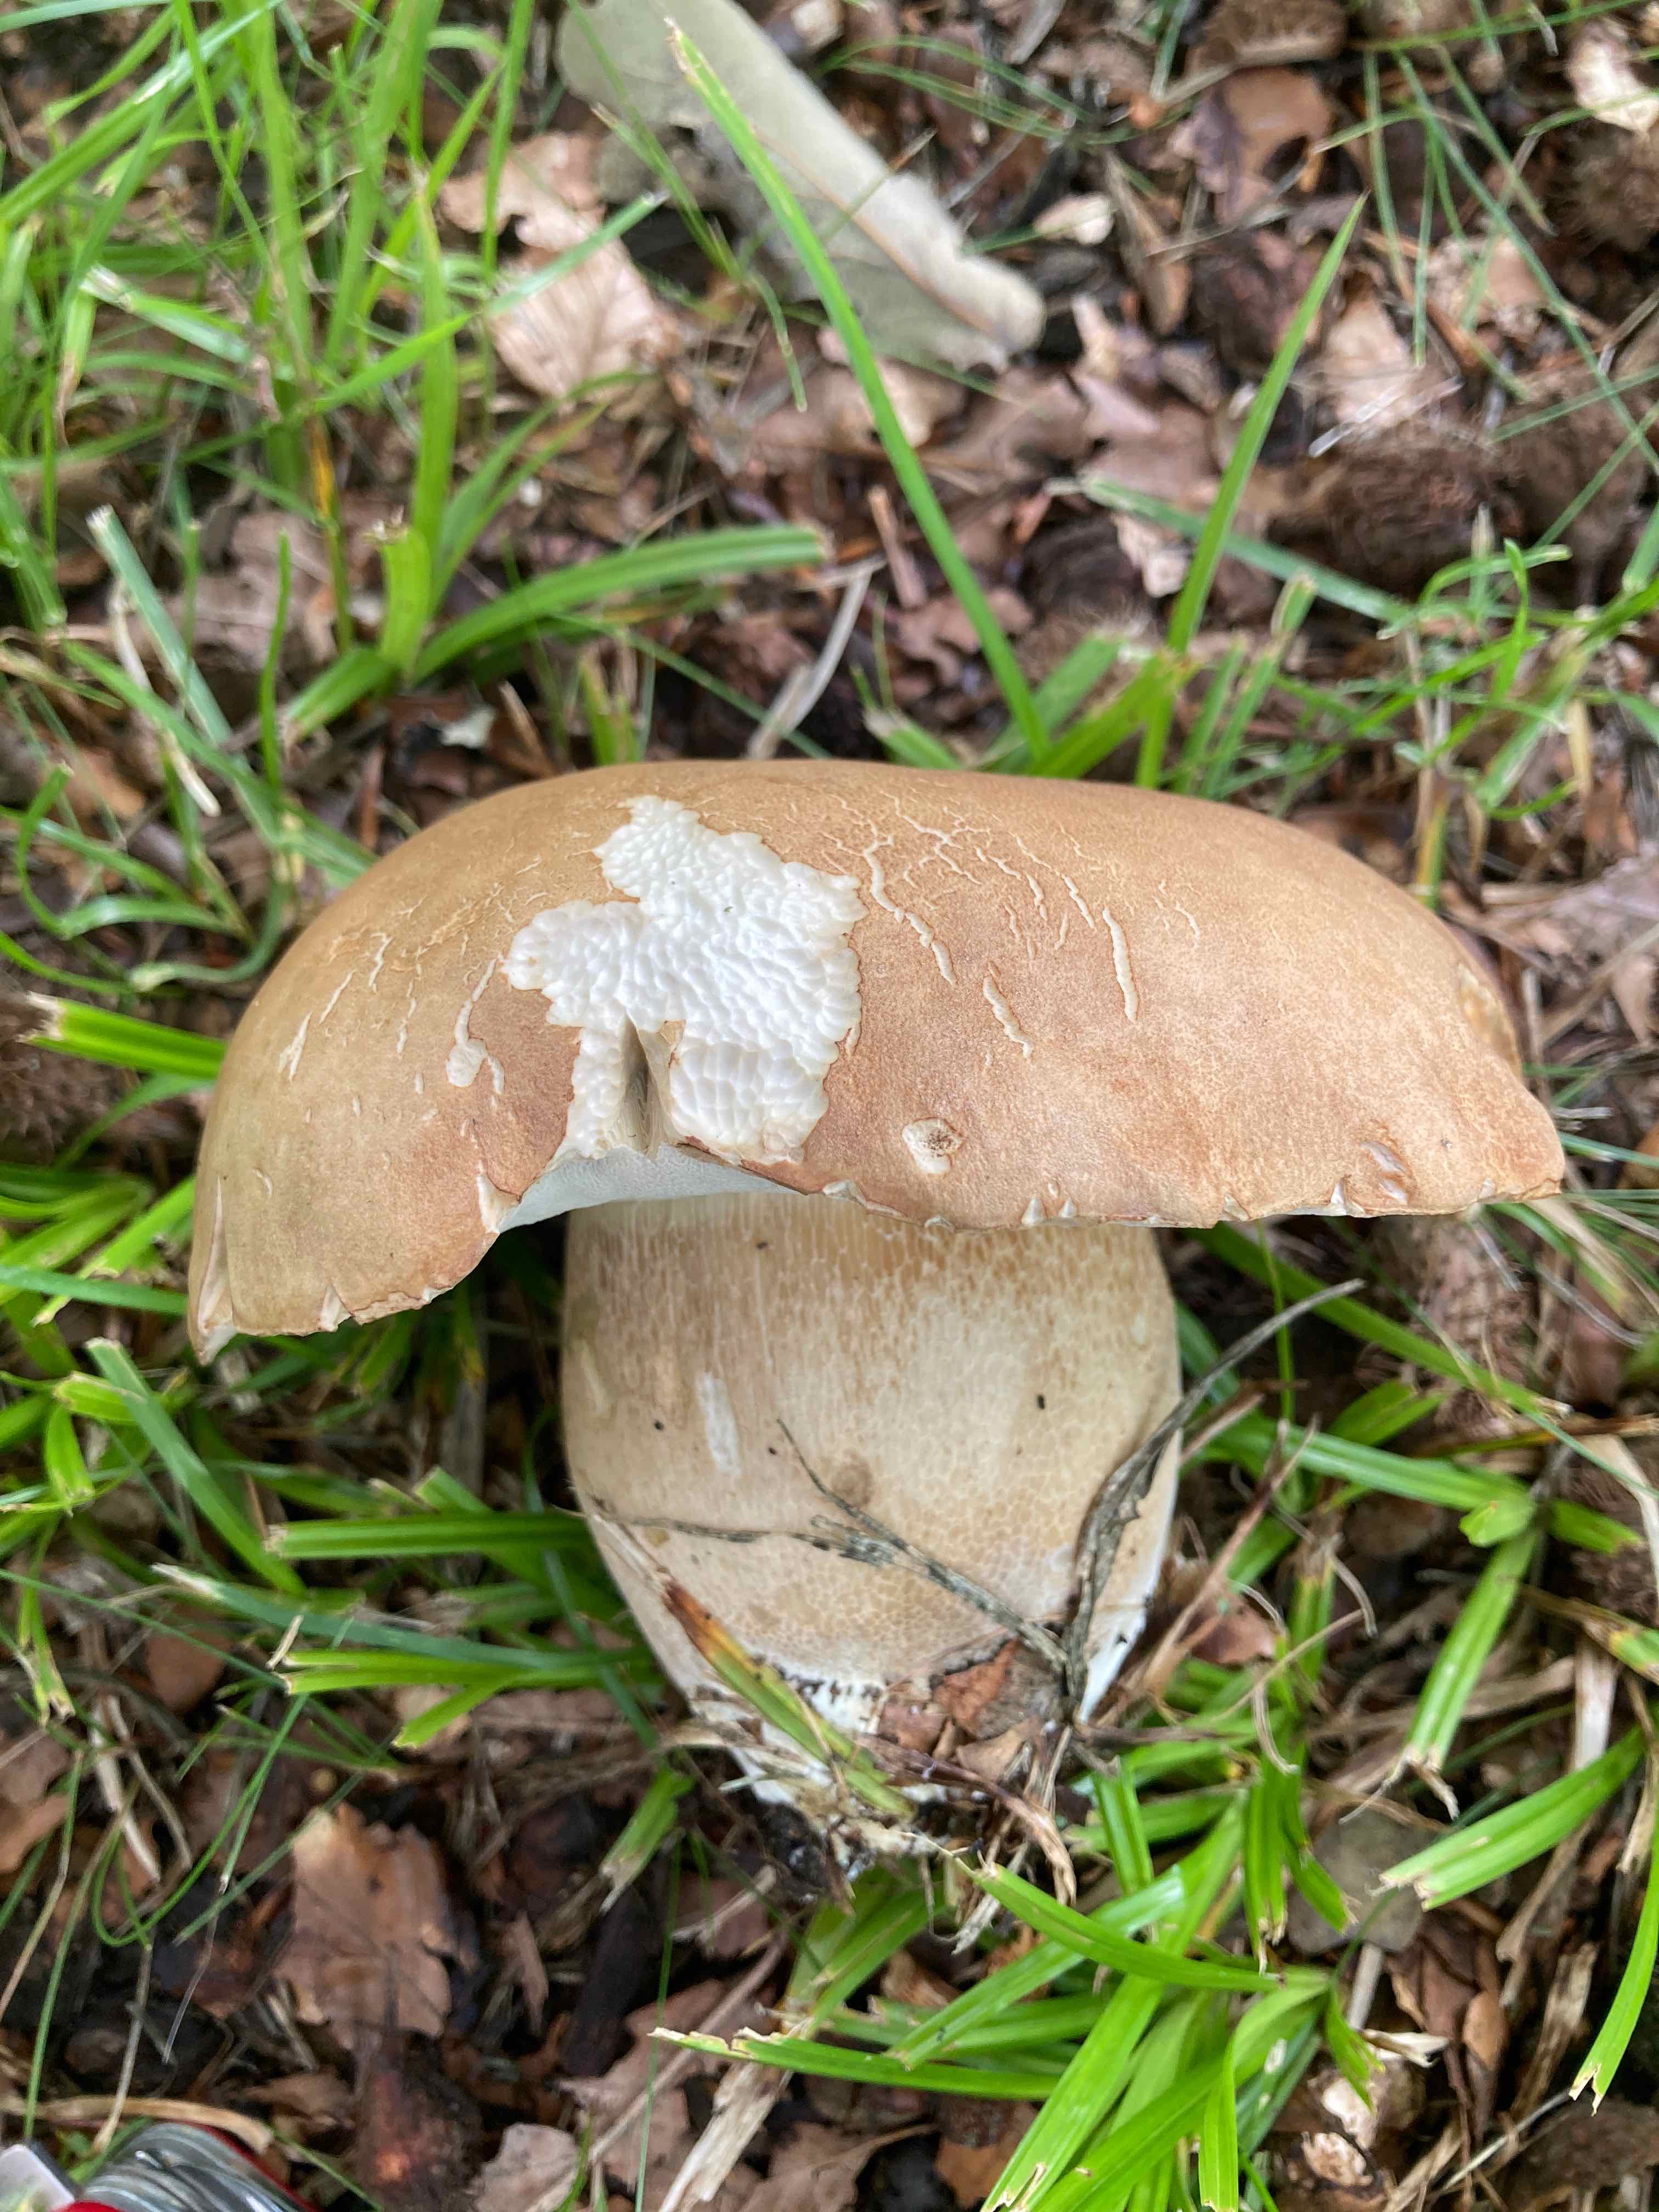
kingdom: Fungi
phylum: Basidiomycota
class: Agaricomycetes
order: Boletales
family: Boletaceae
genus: Boletus
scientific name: Boletus reticulatus
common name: sommer-rørhat
